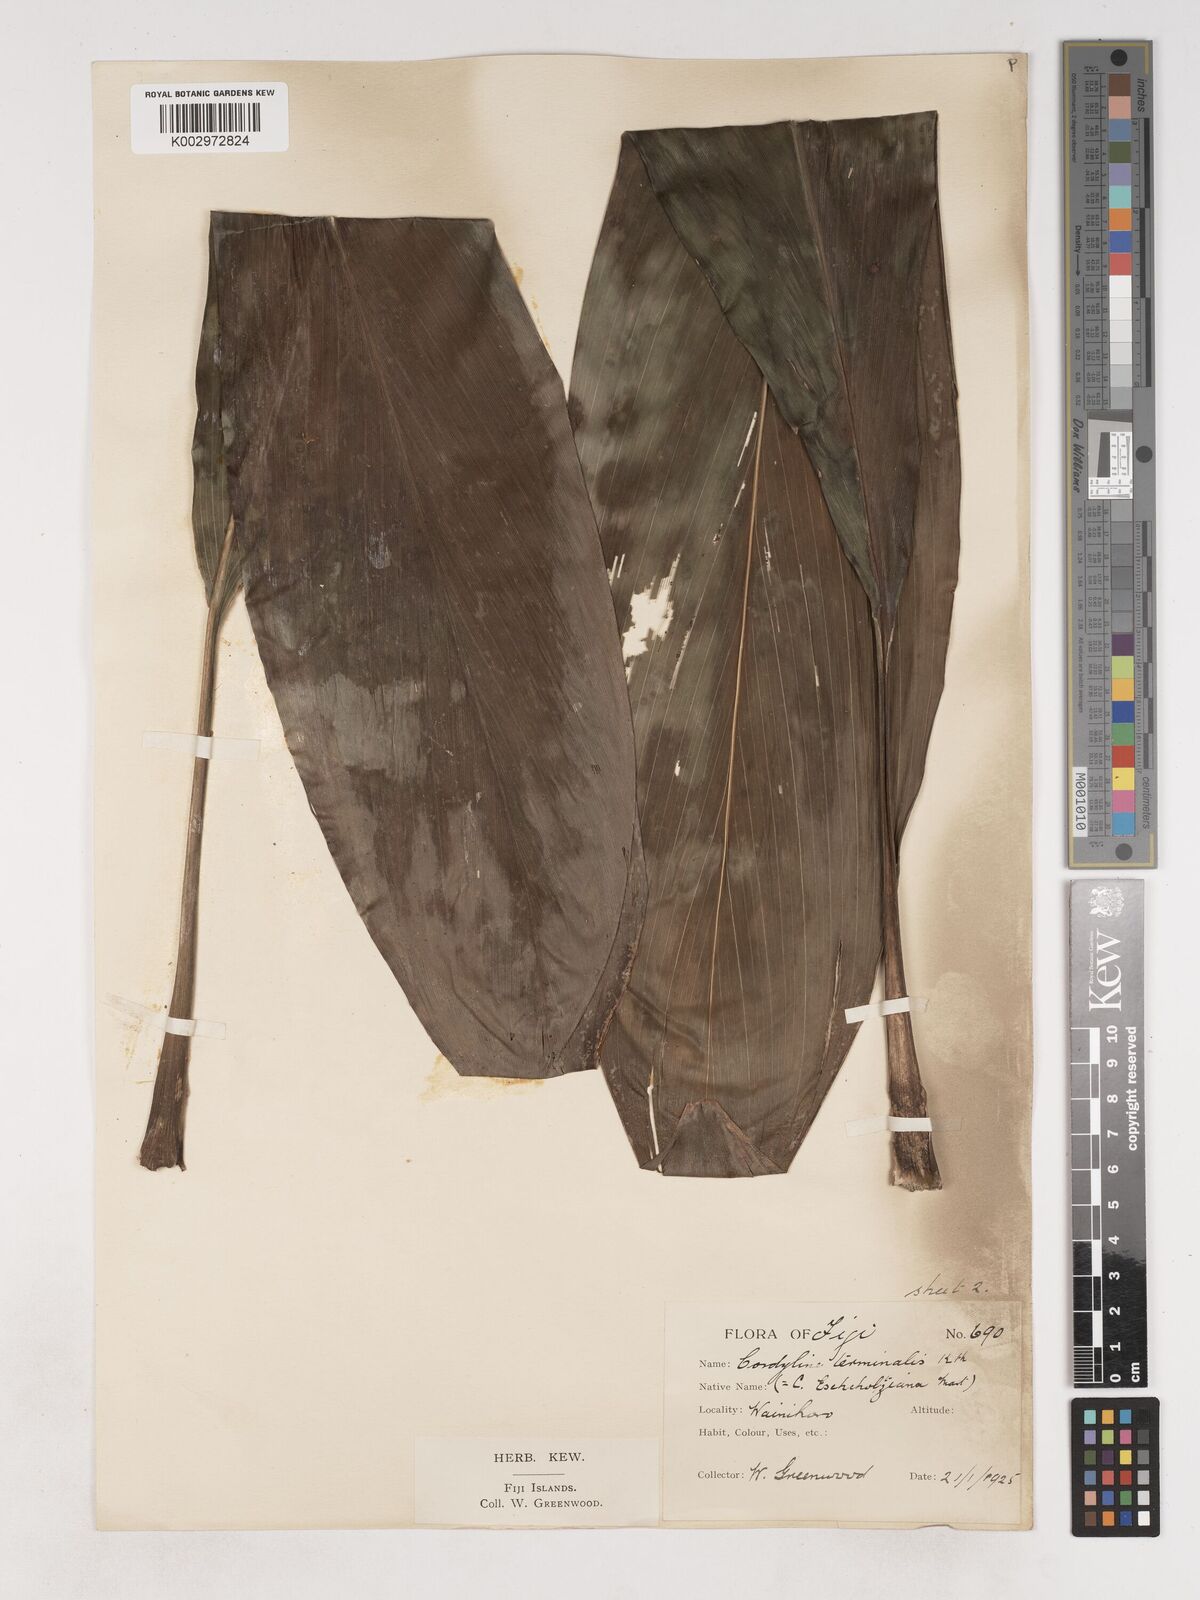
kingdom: Plantae
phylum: Tracheophyta
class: Liliopsida
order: Asparagales
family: Asparagaceae
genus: Cordyline
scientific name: Cordyline fruticosa
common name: Good-luck-plant
